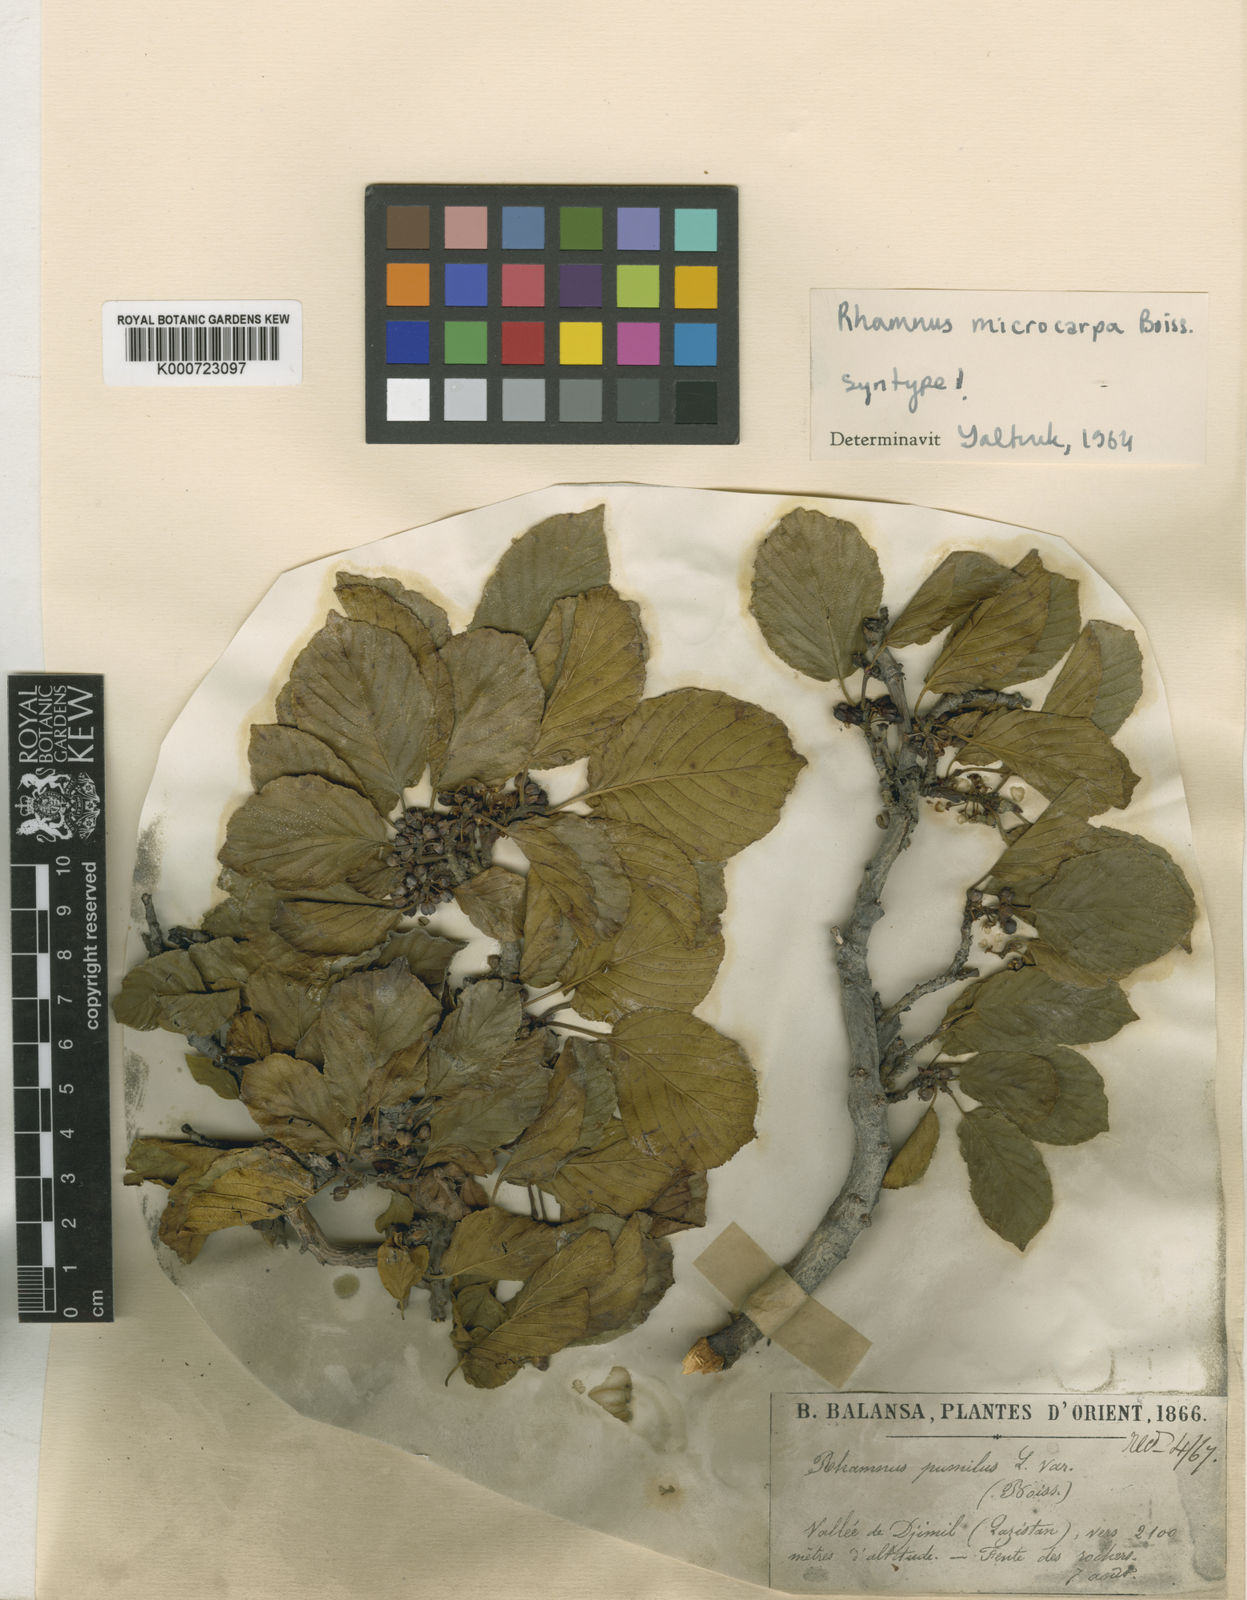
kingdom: Plantae
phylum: Tracheophyta
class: Magnoliopsida
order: Rosales
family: Rhamnaceae
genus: Rhamnus
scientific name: Rhamnus
